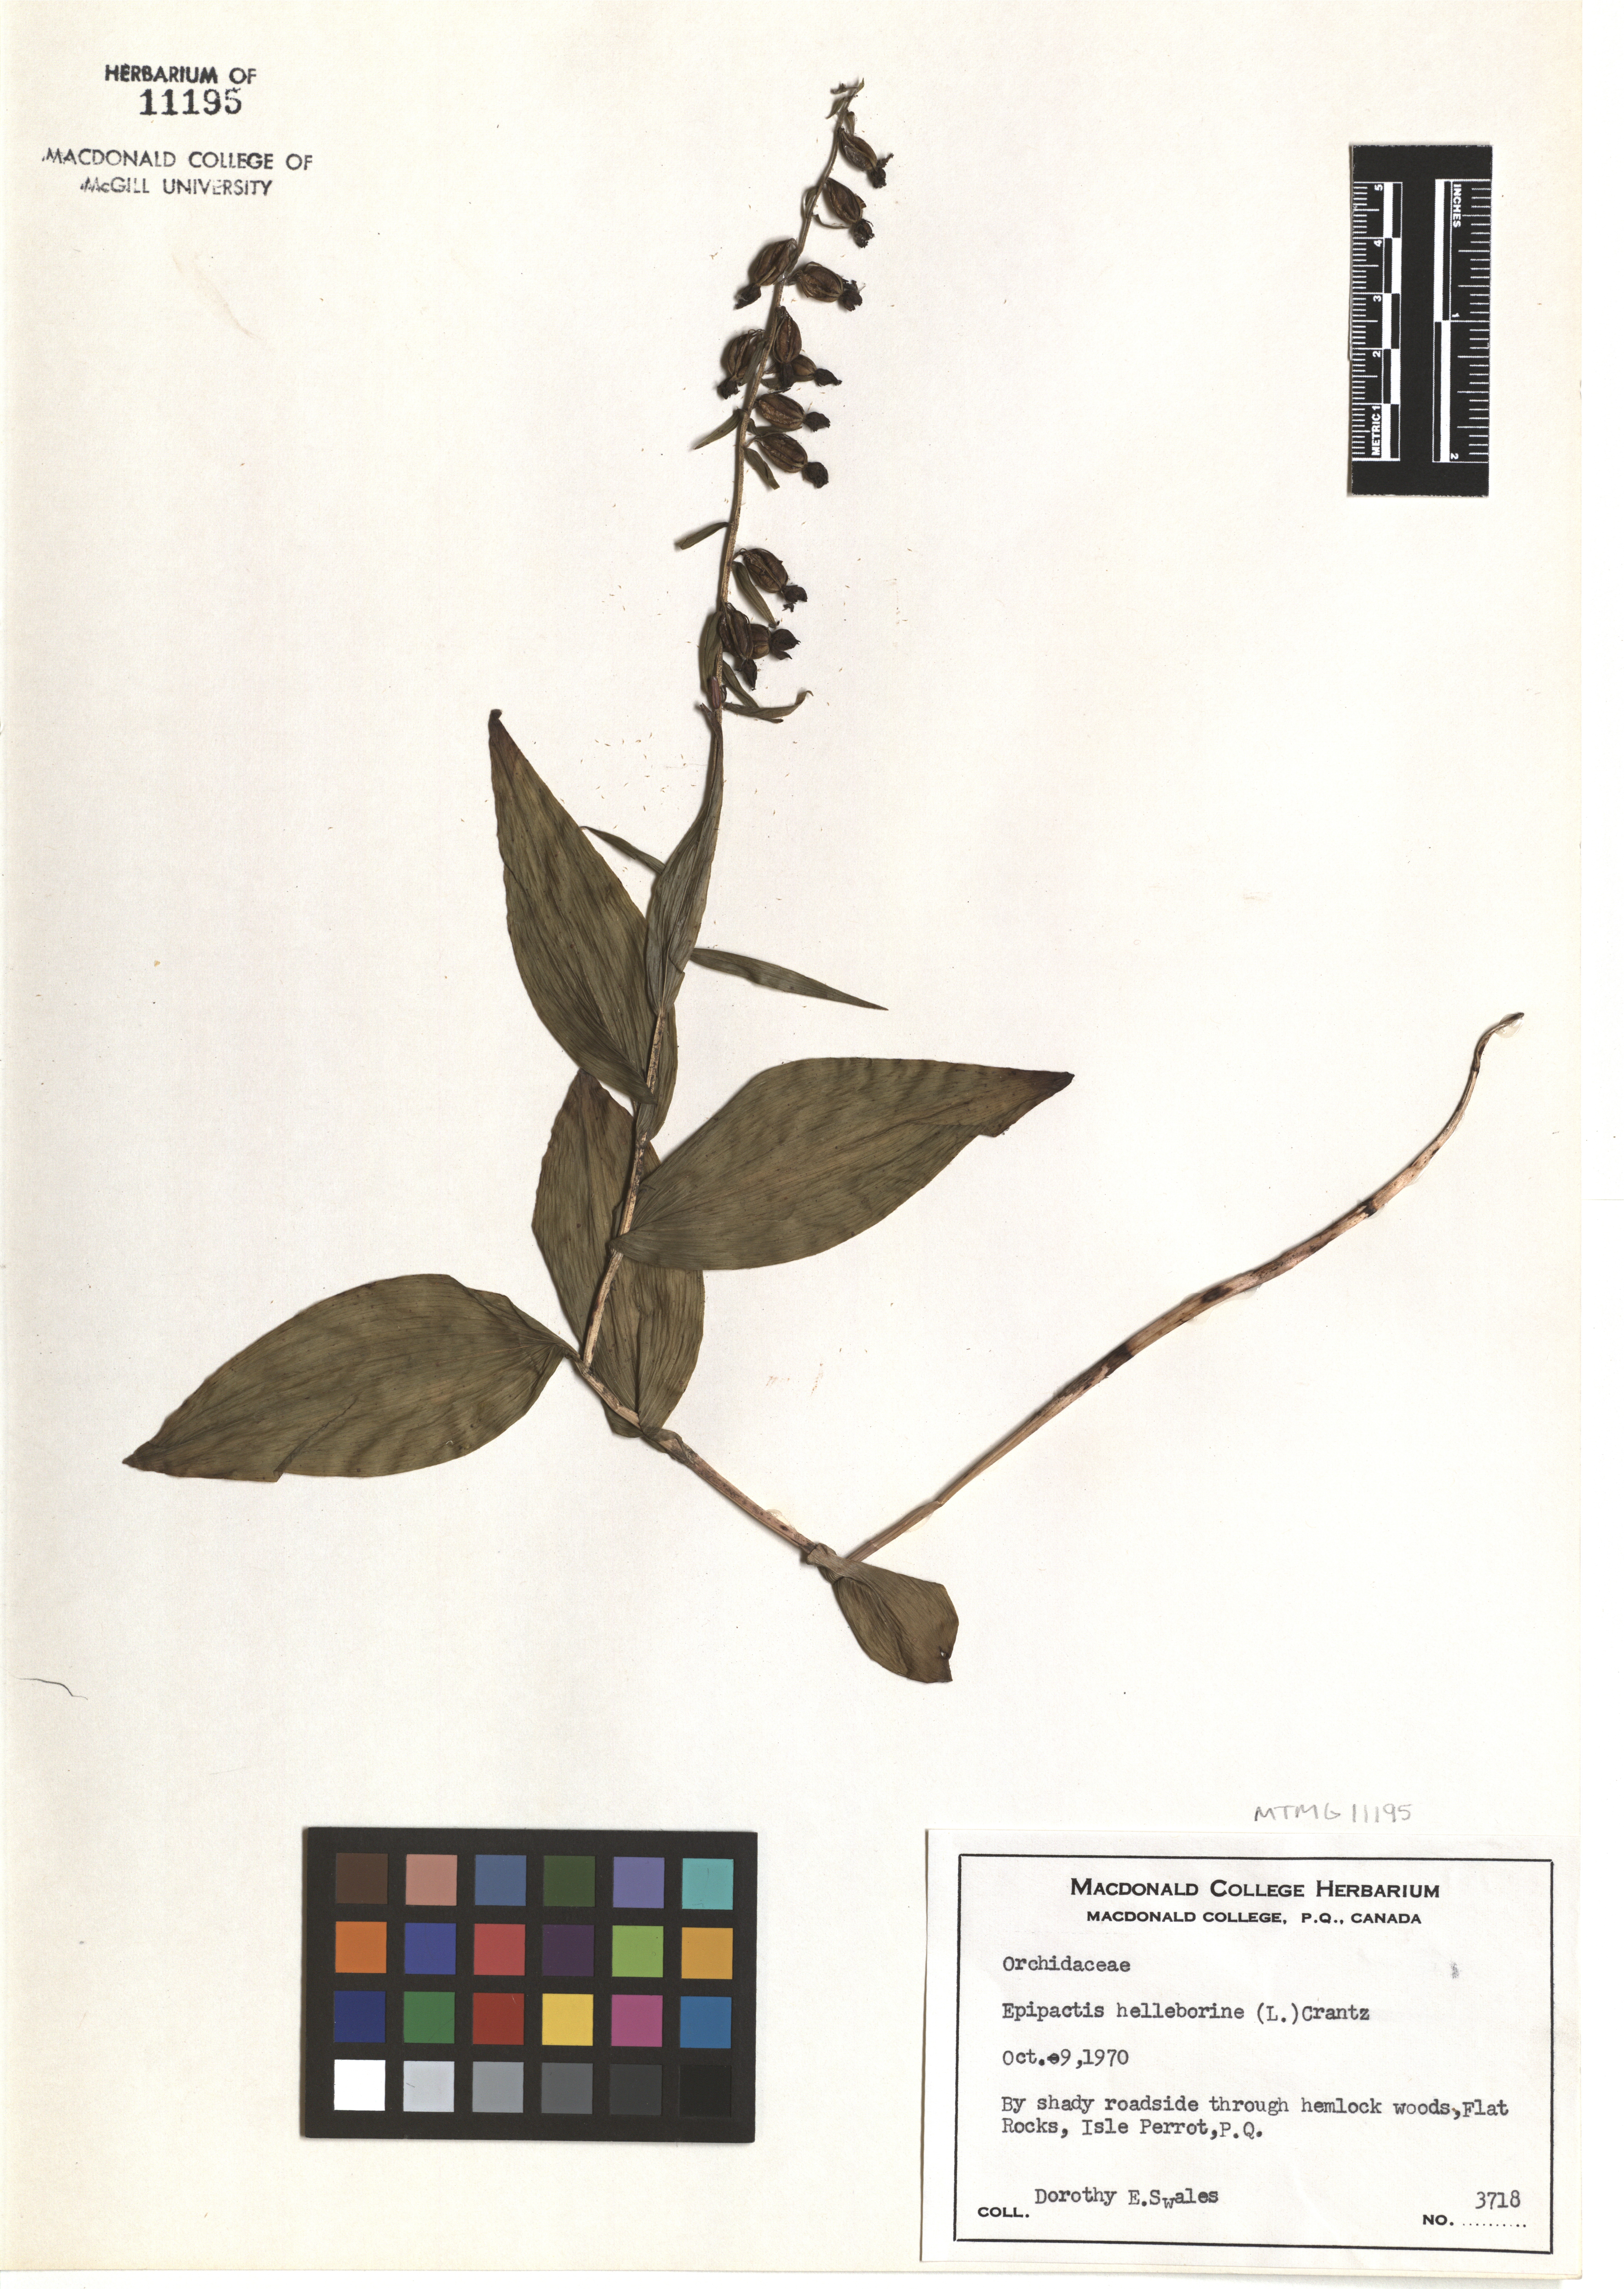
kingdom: Plantae
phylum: Tracheophyta
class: Liliopsida
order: Asparagales
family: Orchidaceae
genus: Epipactis
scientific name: Epipactis helleborine
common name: Broad-leaved helleborine
